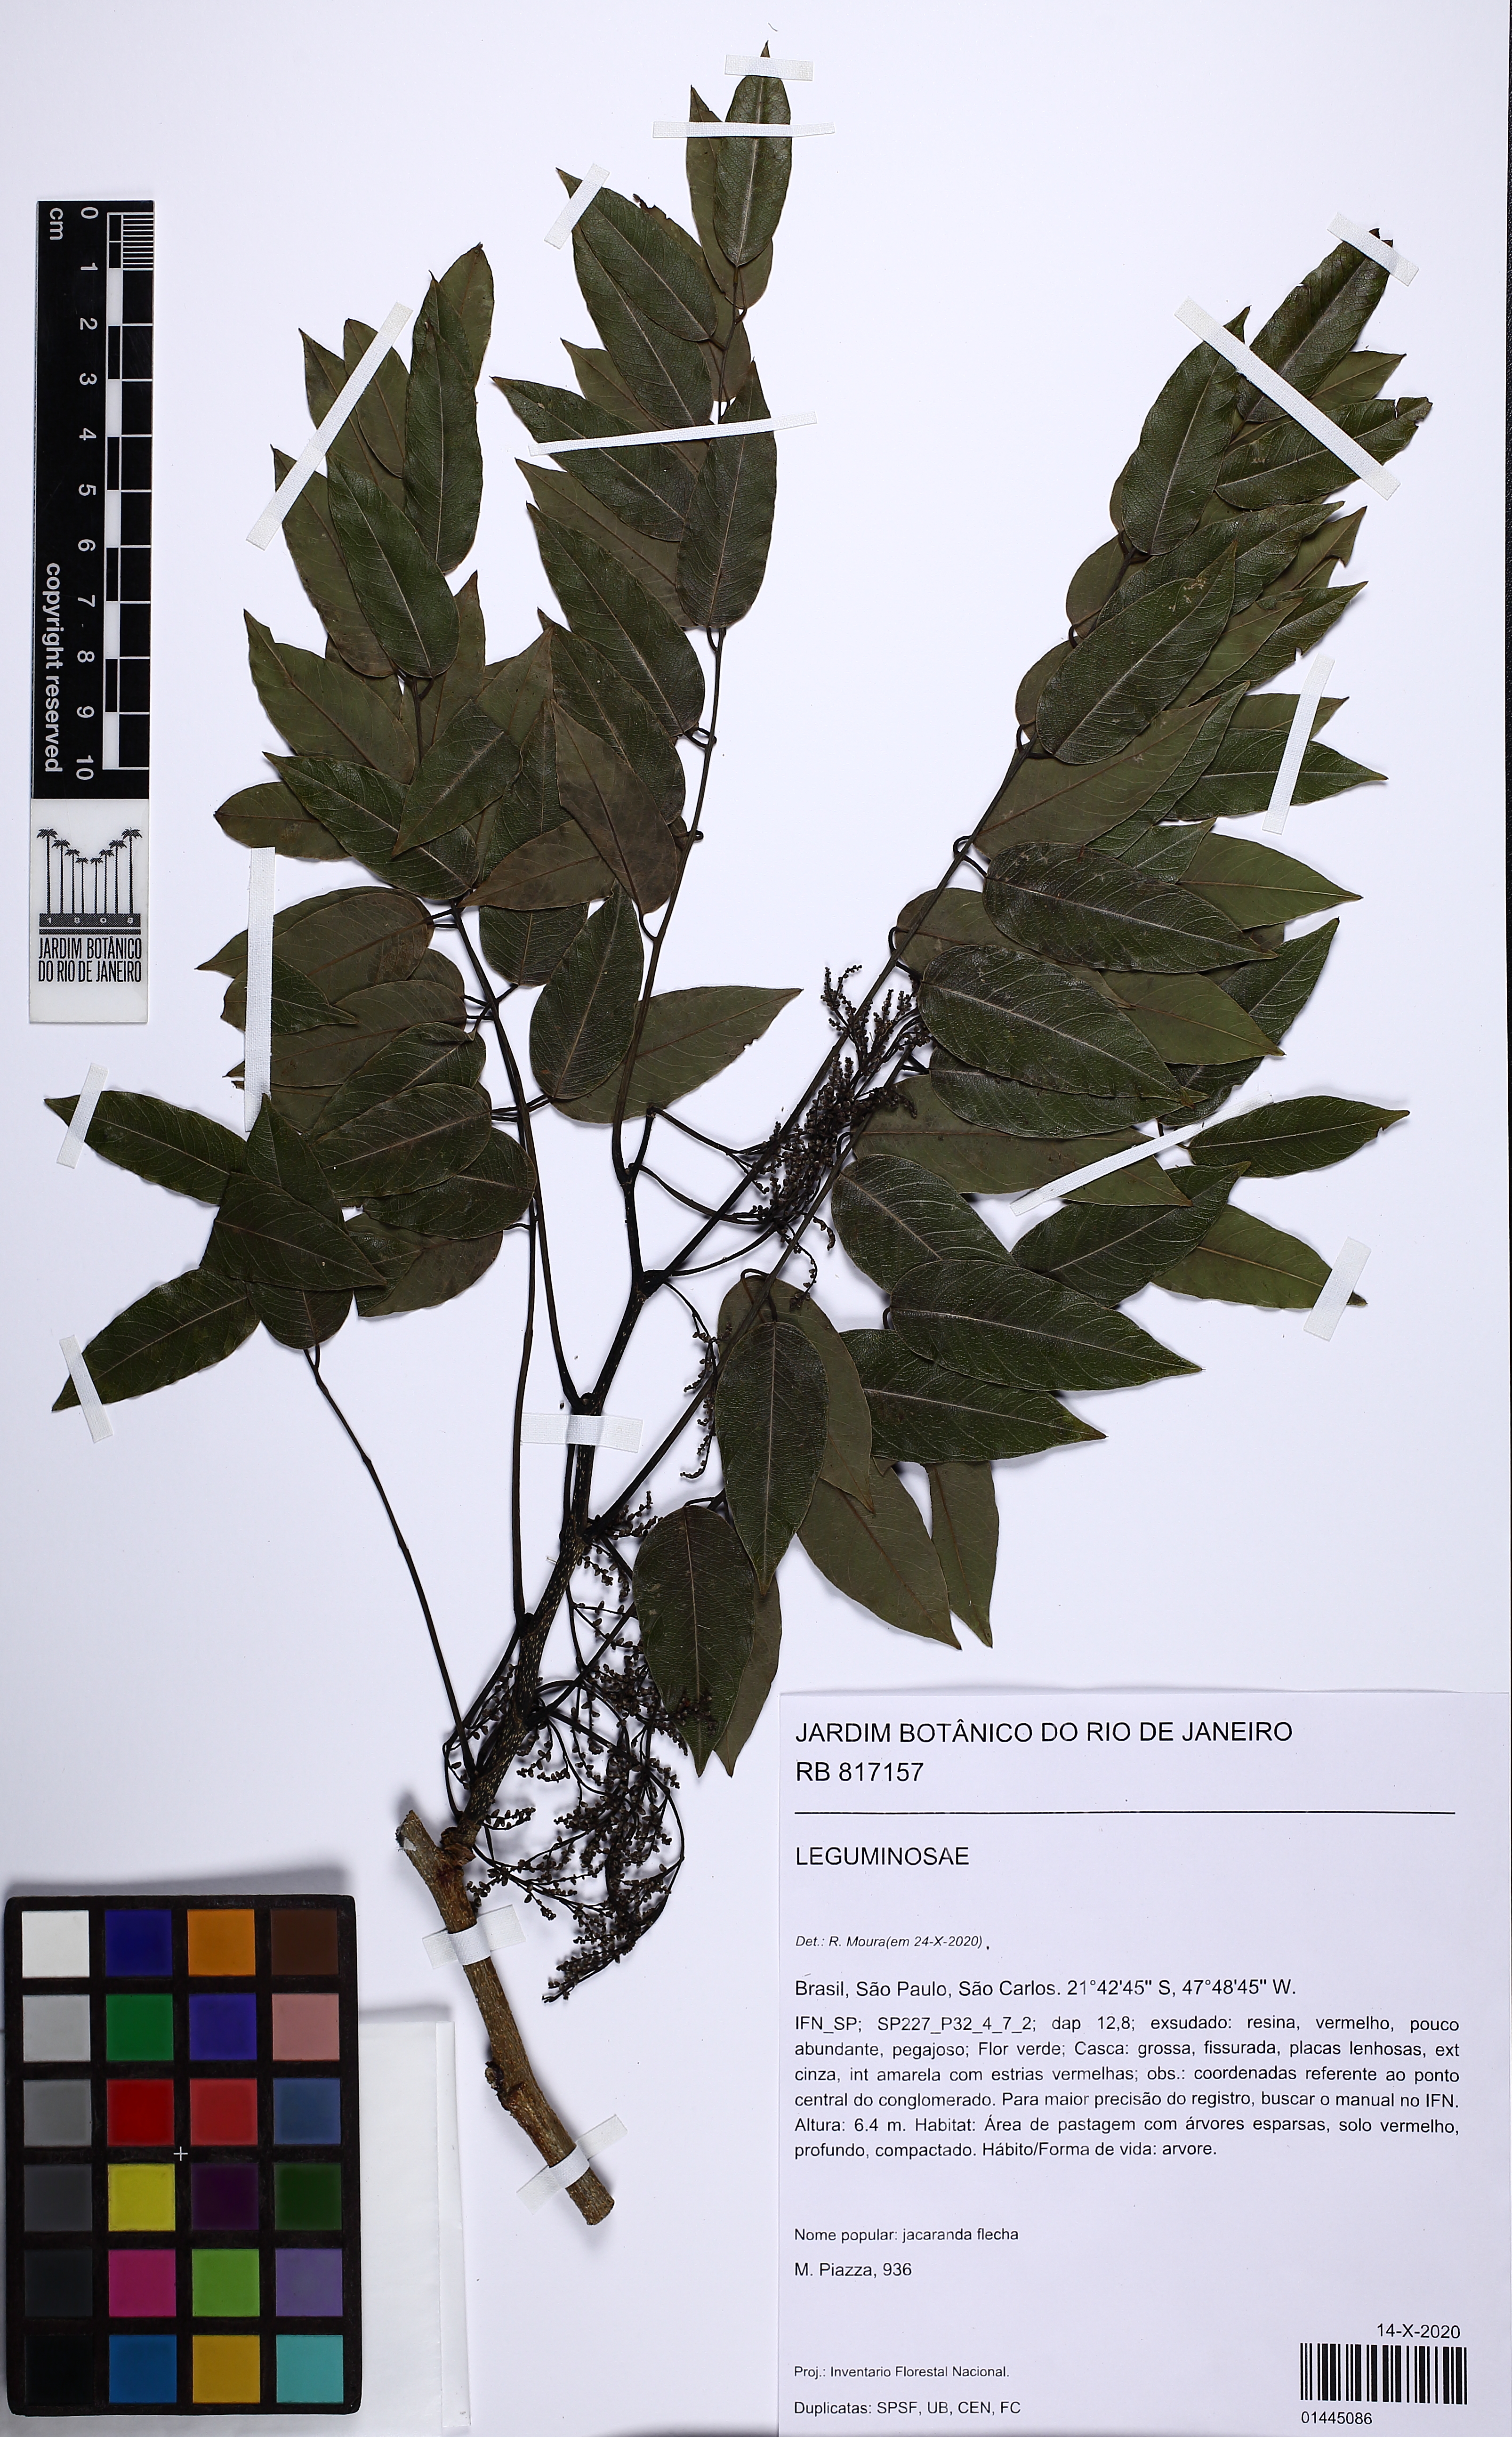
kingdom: Plantae
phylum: Tracheophyta
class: Magnoliopsida
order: Fabales
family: Fabaceae
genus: Machaerium
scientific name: Machaerium acutifolium
